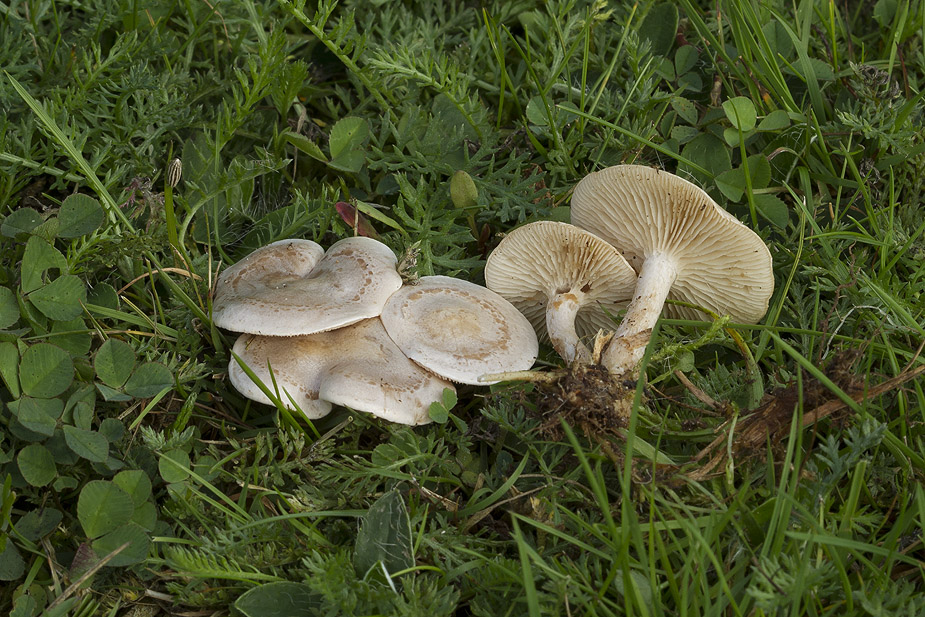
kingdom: Fungi
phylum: Basidiomycota
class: Agaricomycetes
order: Agaricales
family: Tricholomataceae
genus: Clitocybe
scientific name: Clitocybe rivulosa
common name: eng-tragthat
